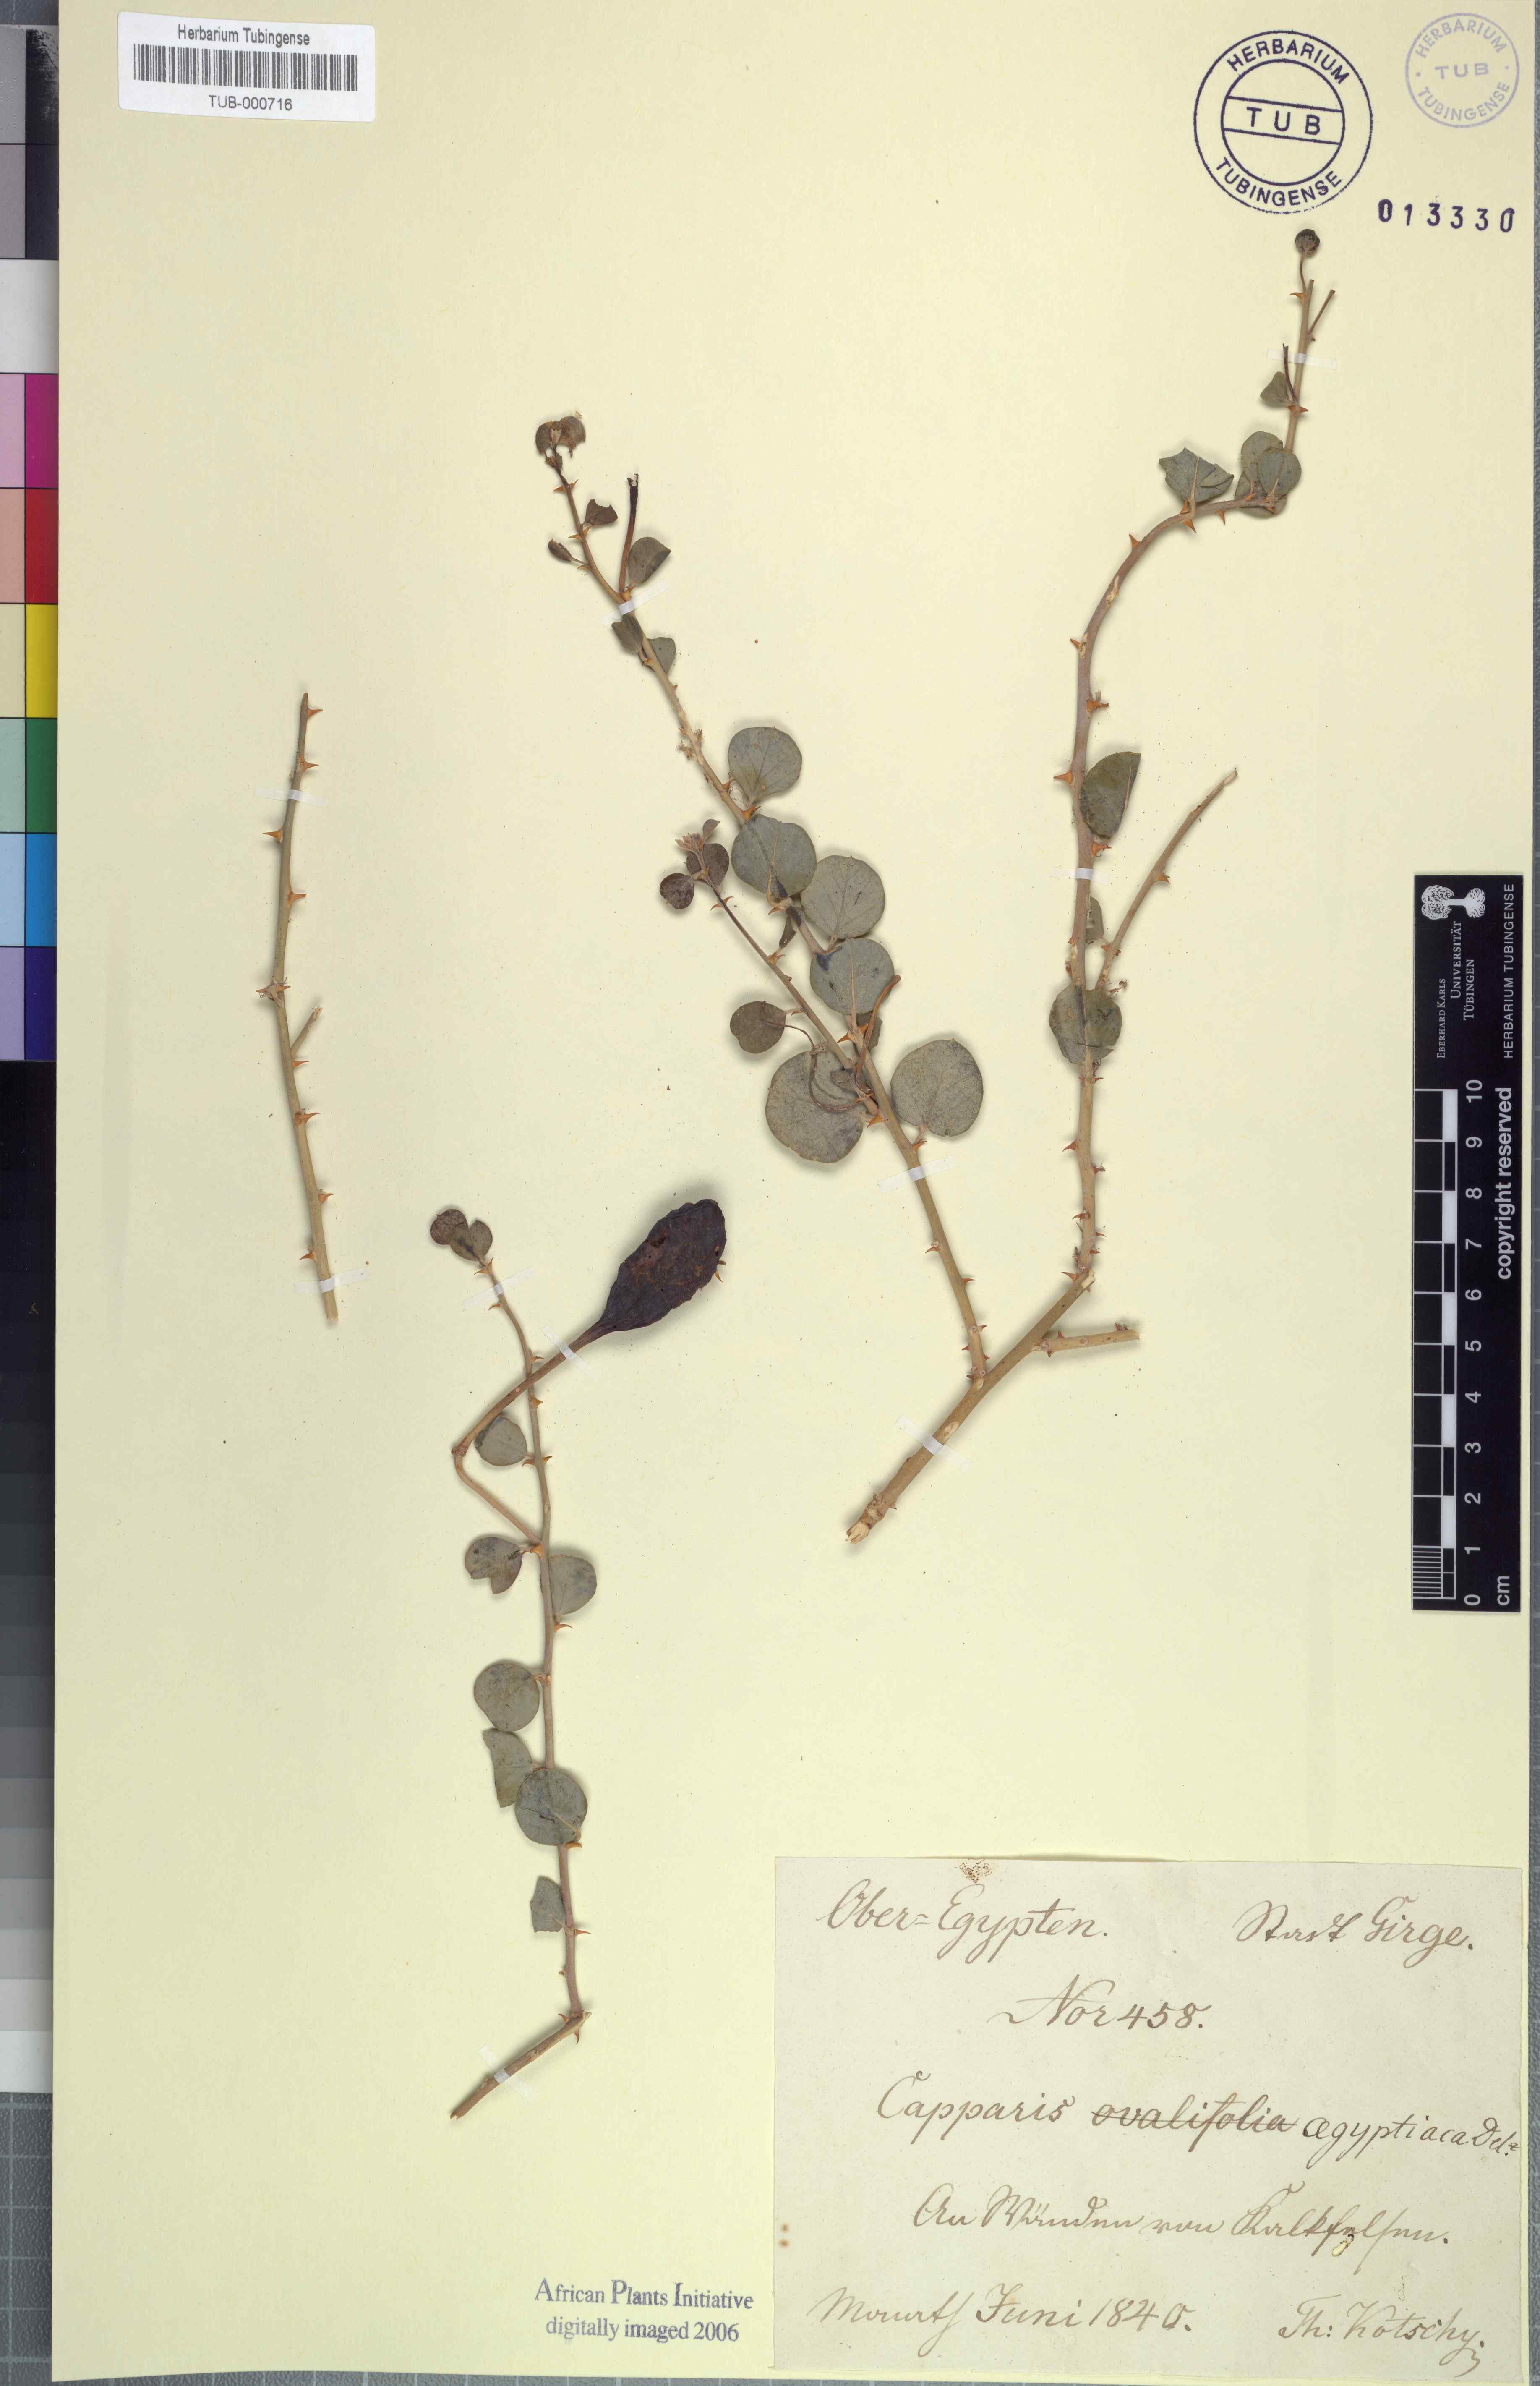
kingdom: Plantae
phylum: Tracheophyta
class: Magnoliopsida
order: Brassicales
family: Capparaceae
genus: Capparis
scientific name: Capparis spinosa
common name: Caper
